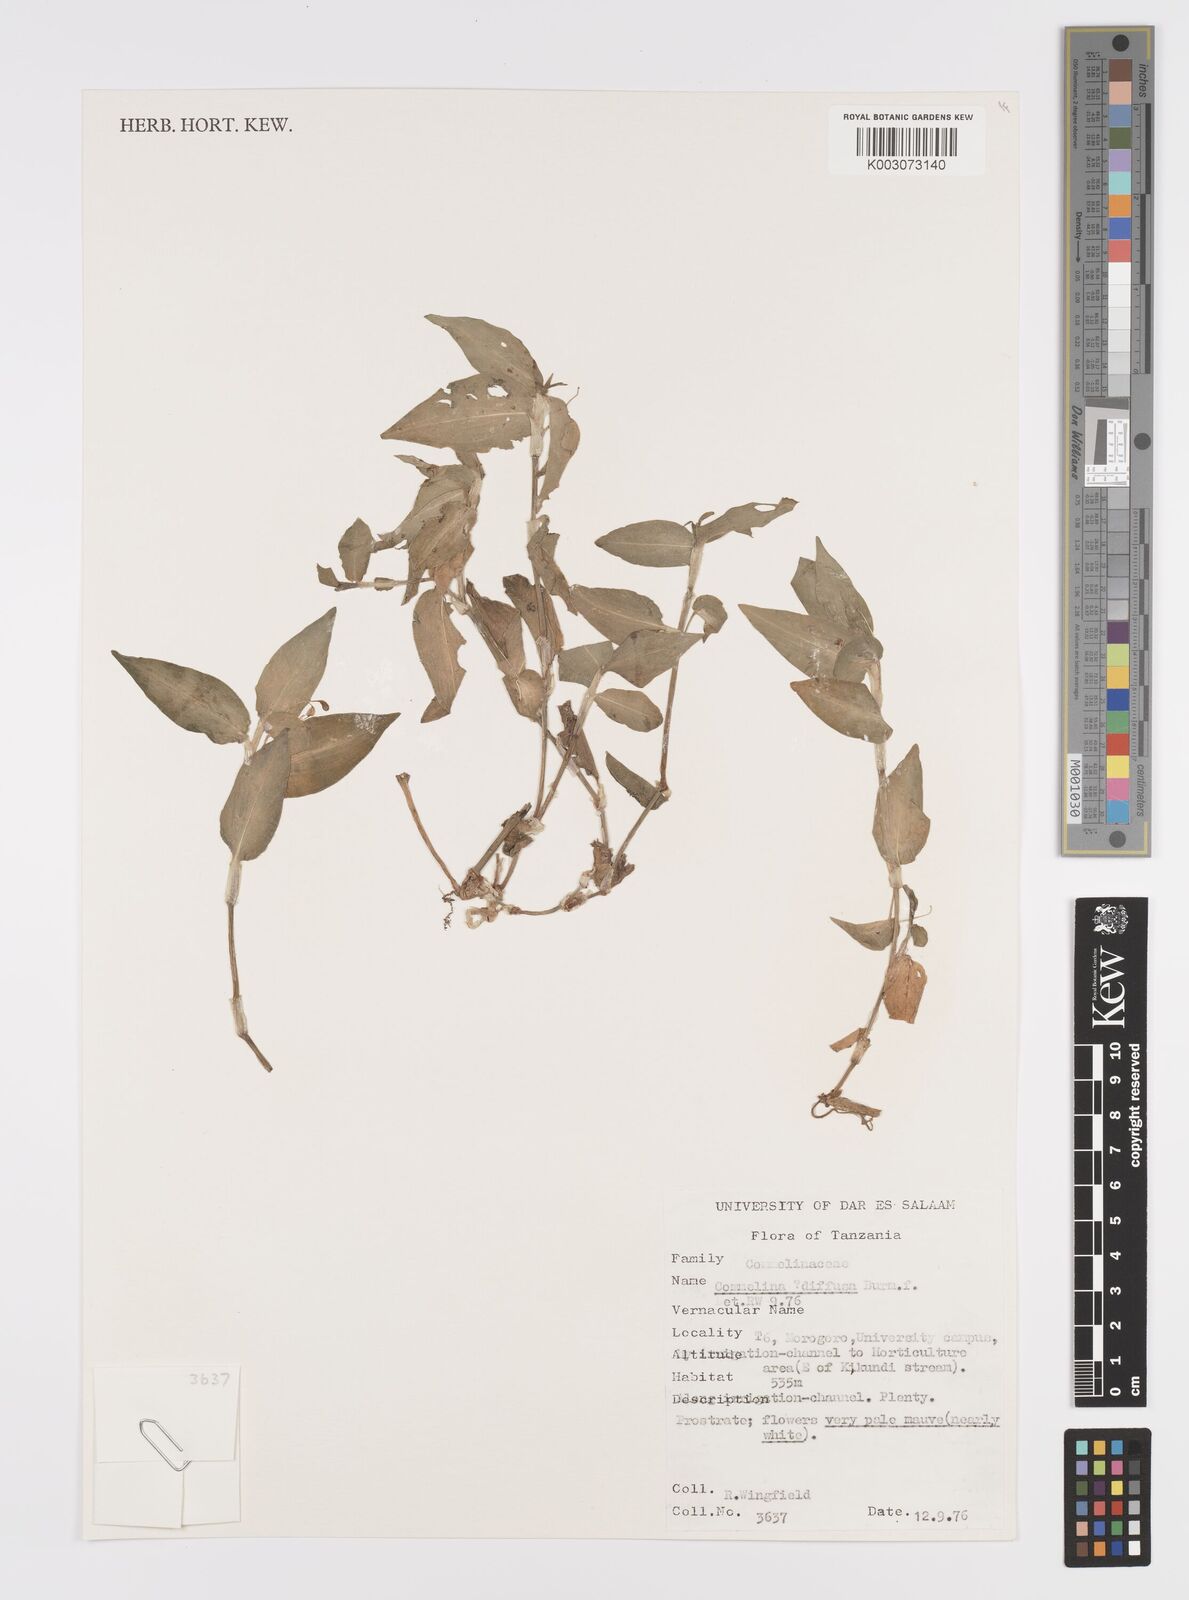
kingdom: Plantae
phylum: Tracheophyta
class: Liliopsida
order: Commelinales
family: Commelinaceae
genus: Commelina
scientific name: Commelina diffusa
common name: Climbing dayflower
